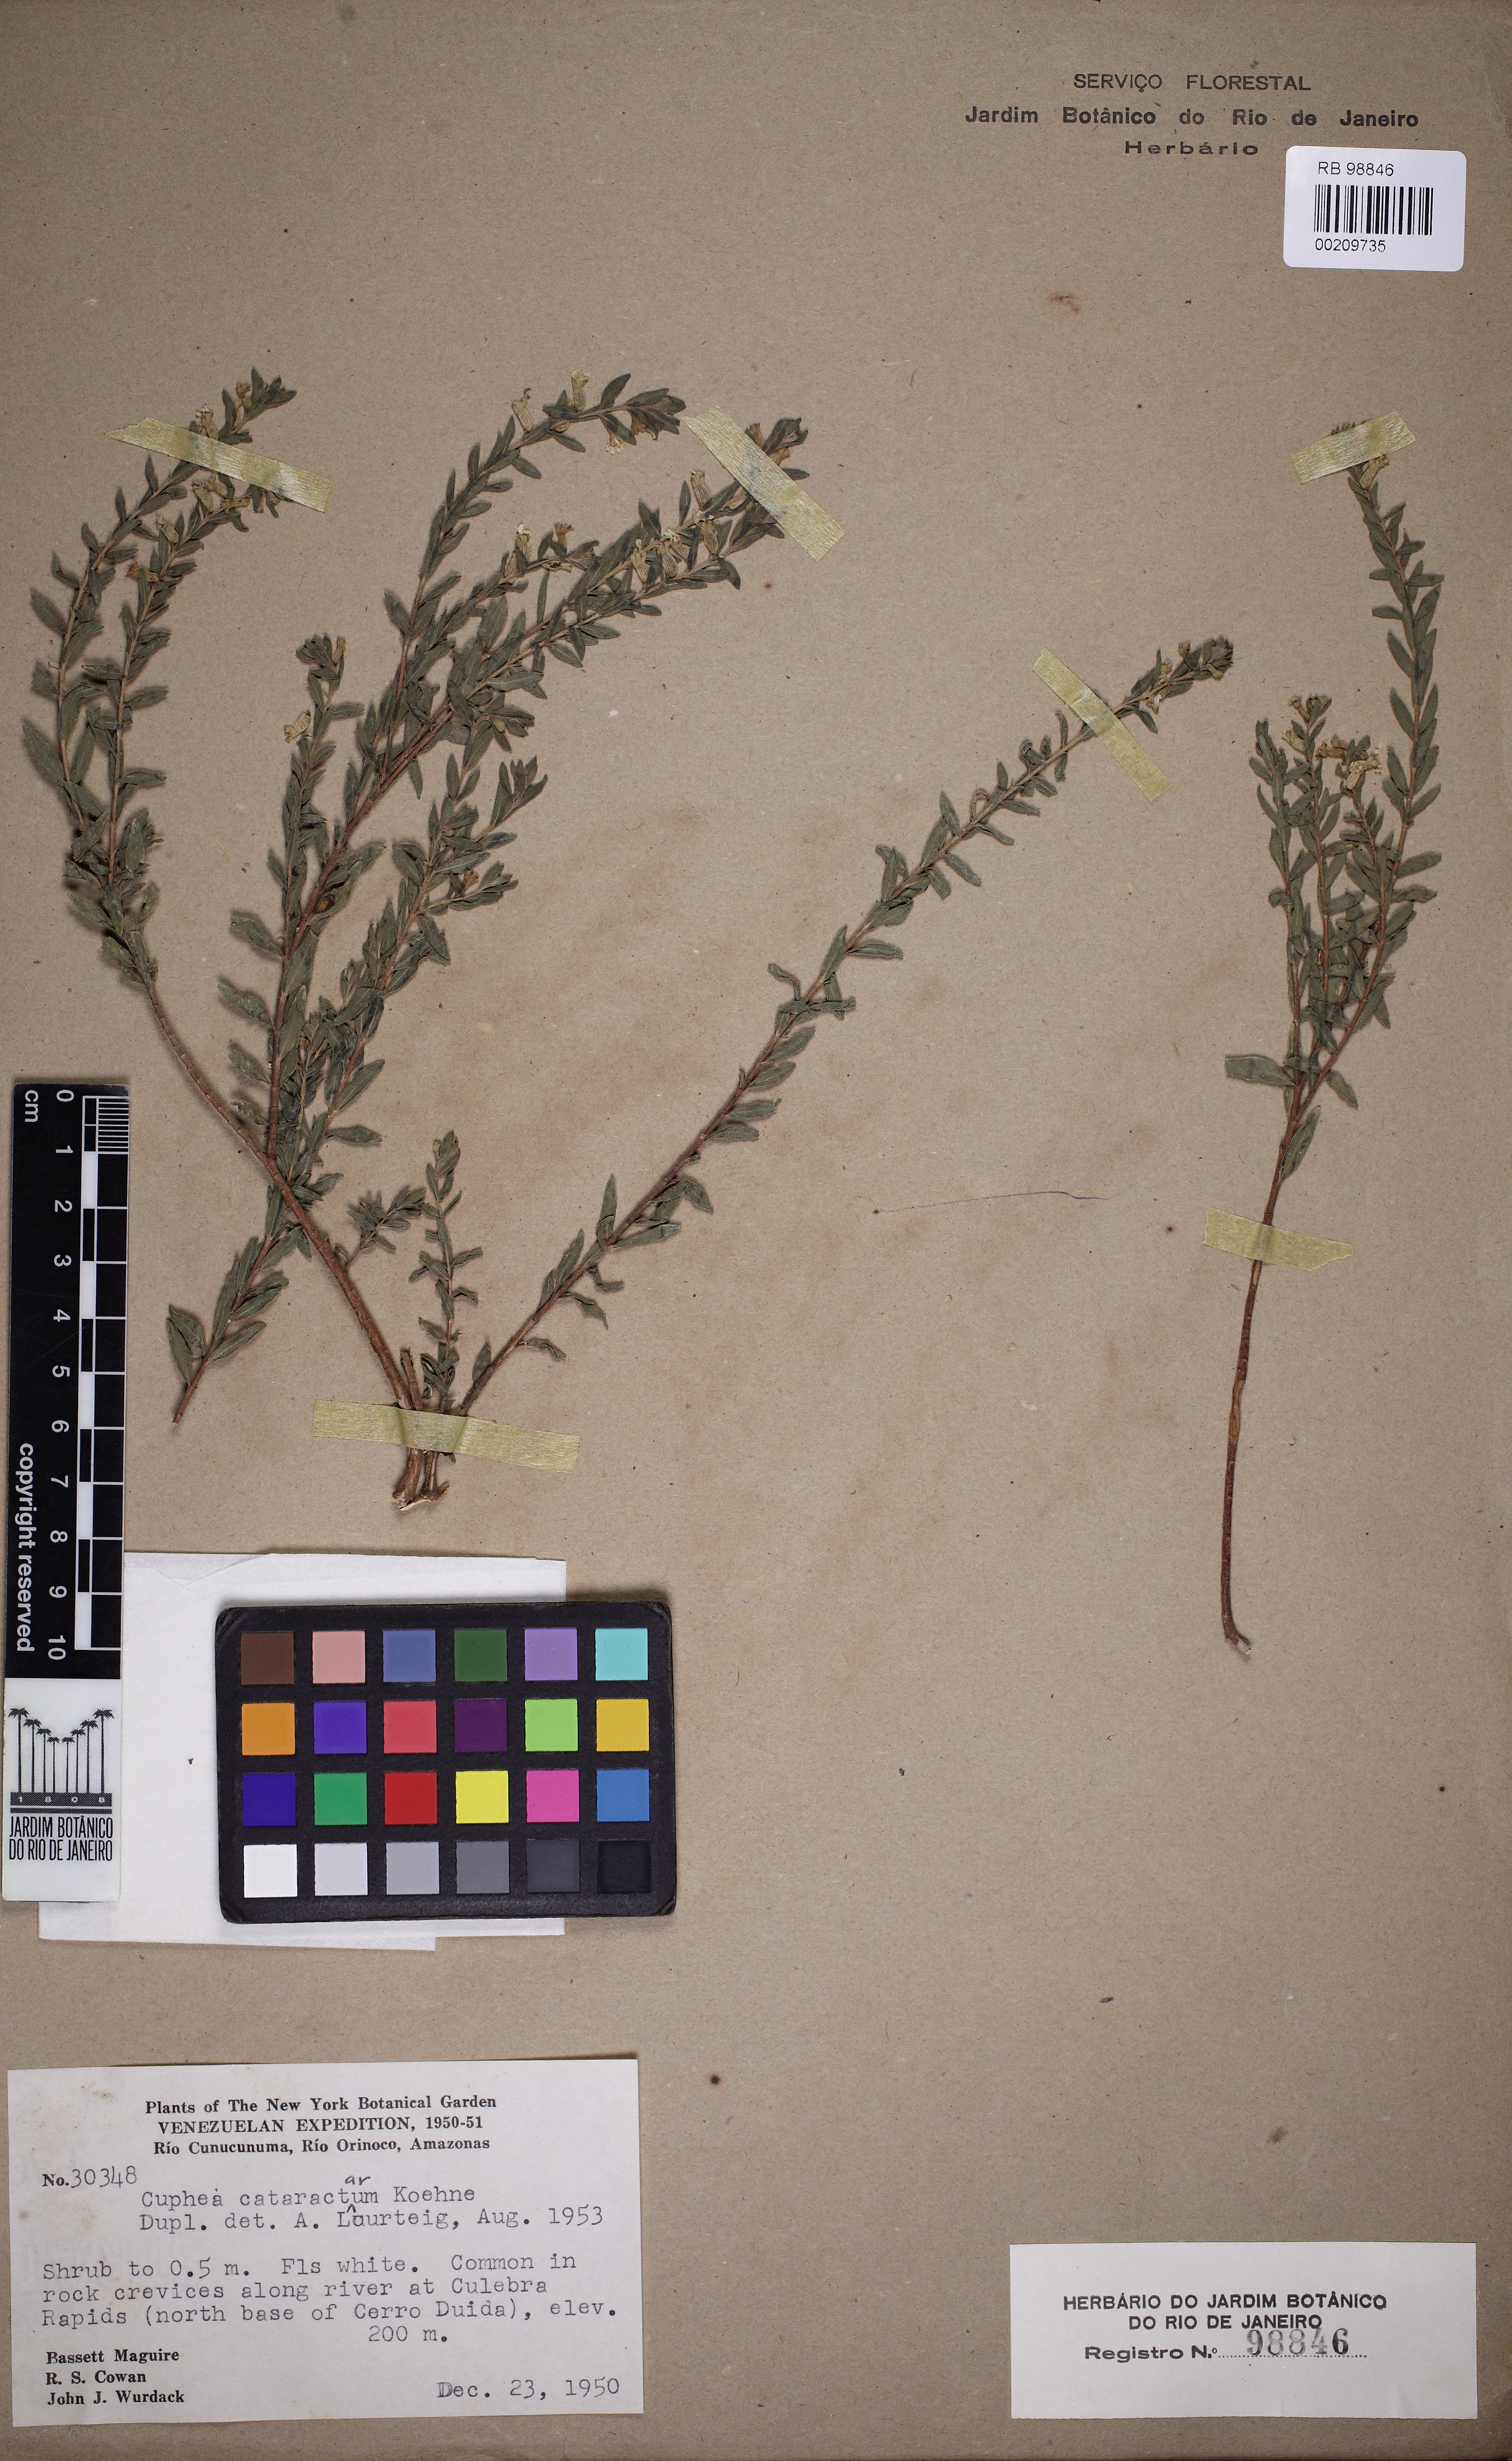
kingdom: Plantae
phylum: Tracheophyta
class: Magnoliopsida
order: Myrtales
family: Lythraceae
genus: Cuphea
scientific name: Cuphea cataractarum
